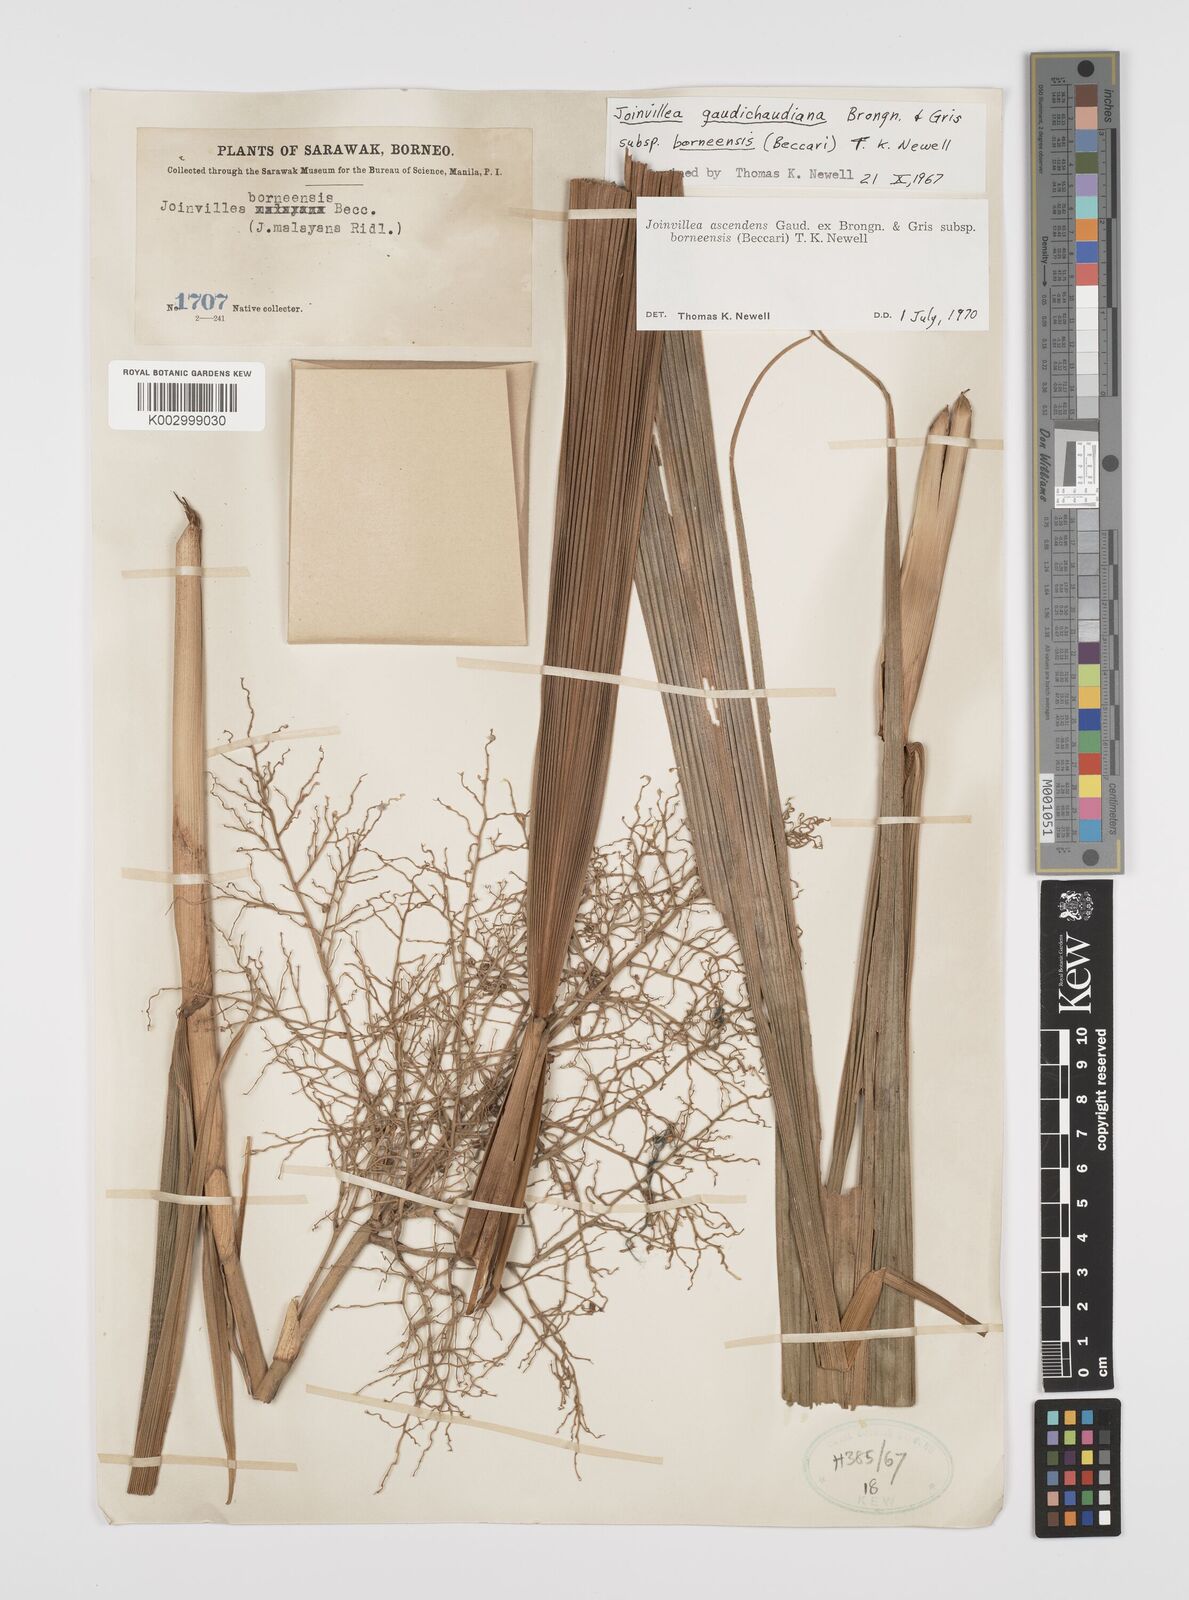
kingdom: Plantae
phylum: Tracheophyta
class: Liliopsida
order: Poales
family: Joinvilleaceae
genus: Joinvillea
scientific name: Joinvillea borneensis
